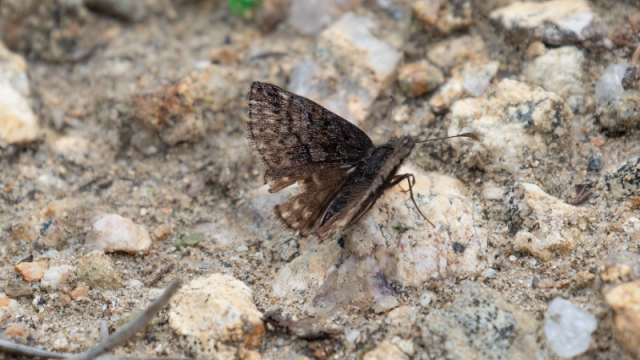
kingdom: Animalia
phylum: Arthropoda
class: Insecta
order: Lepidoptera
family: Hesperiidae
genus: Erynnis
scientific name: Erynnis brizo
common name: Sleepy Duskywing
